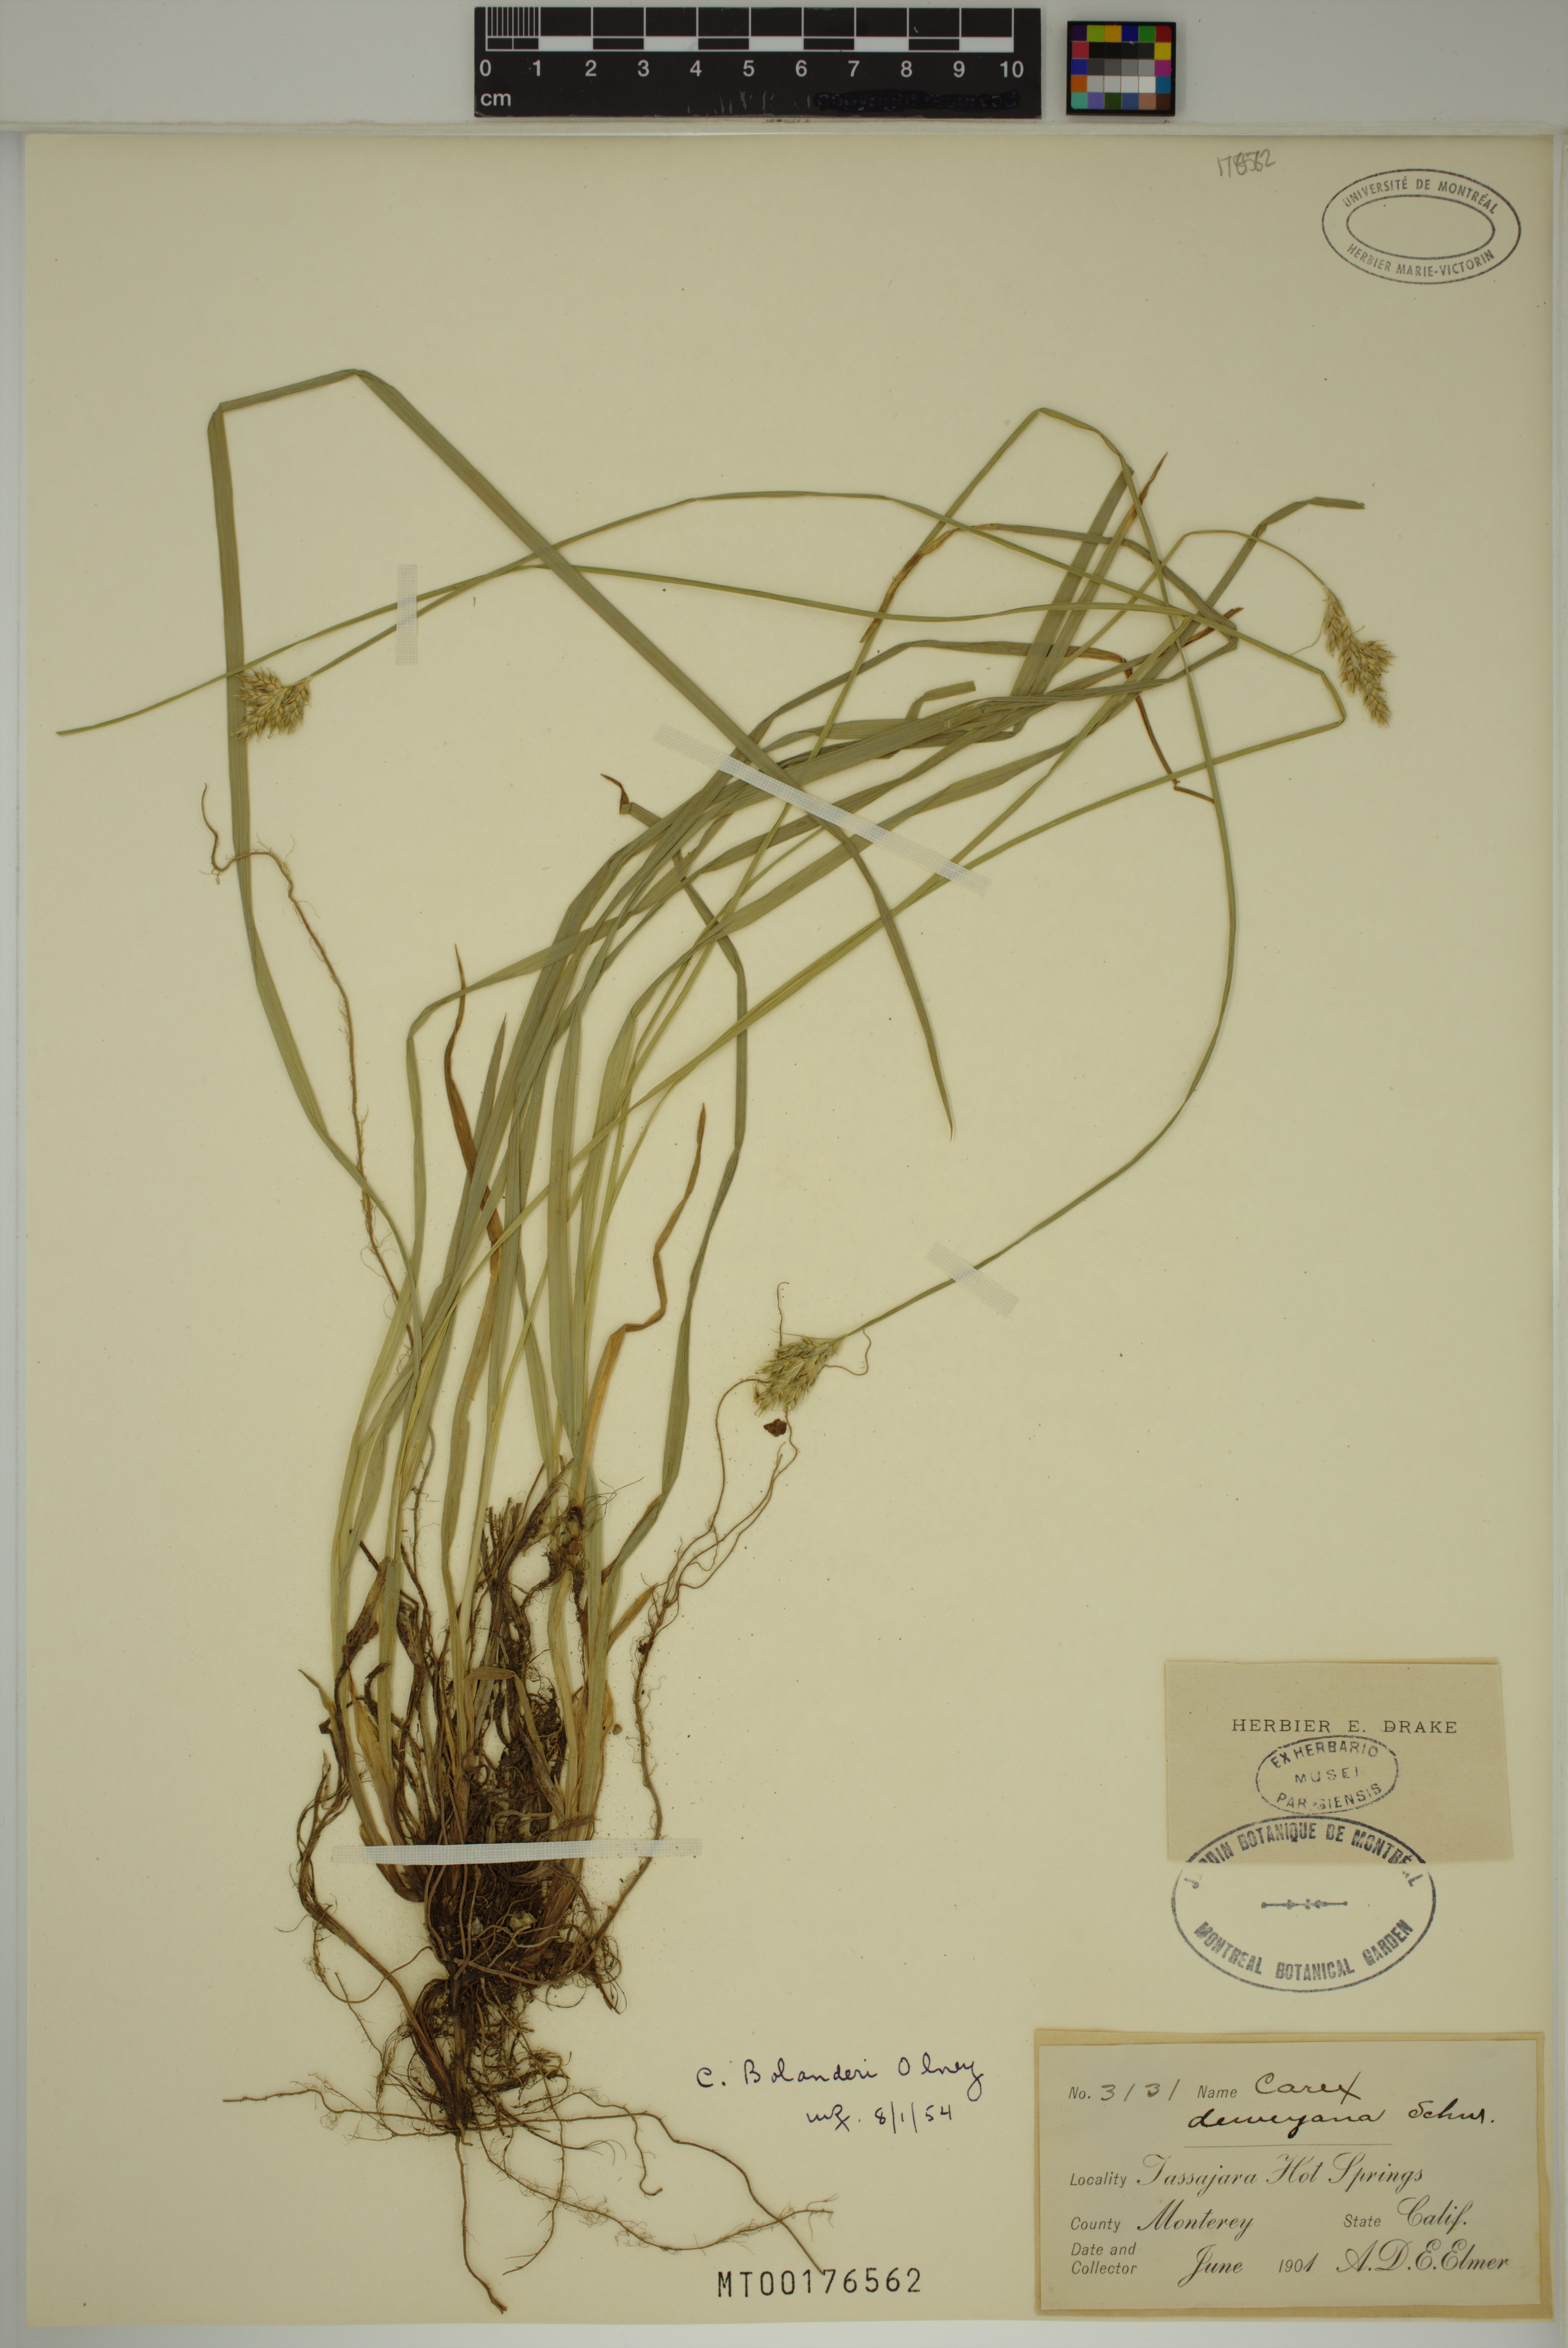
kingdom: Plantae
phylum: Tracheophyta
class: Liliopsida
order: Poales
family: Cyperaceae
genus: Carex
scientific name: Carex bolanderi
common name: Bolander's sedge
